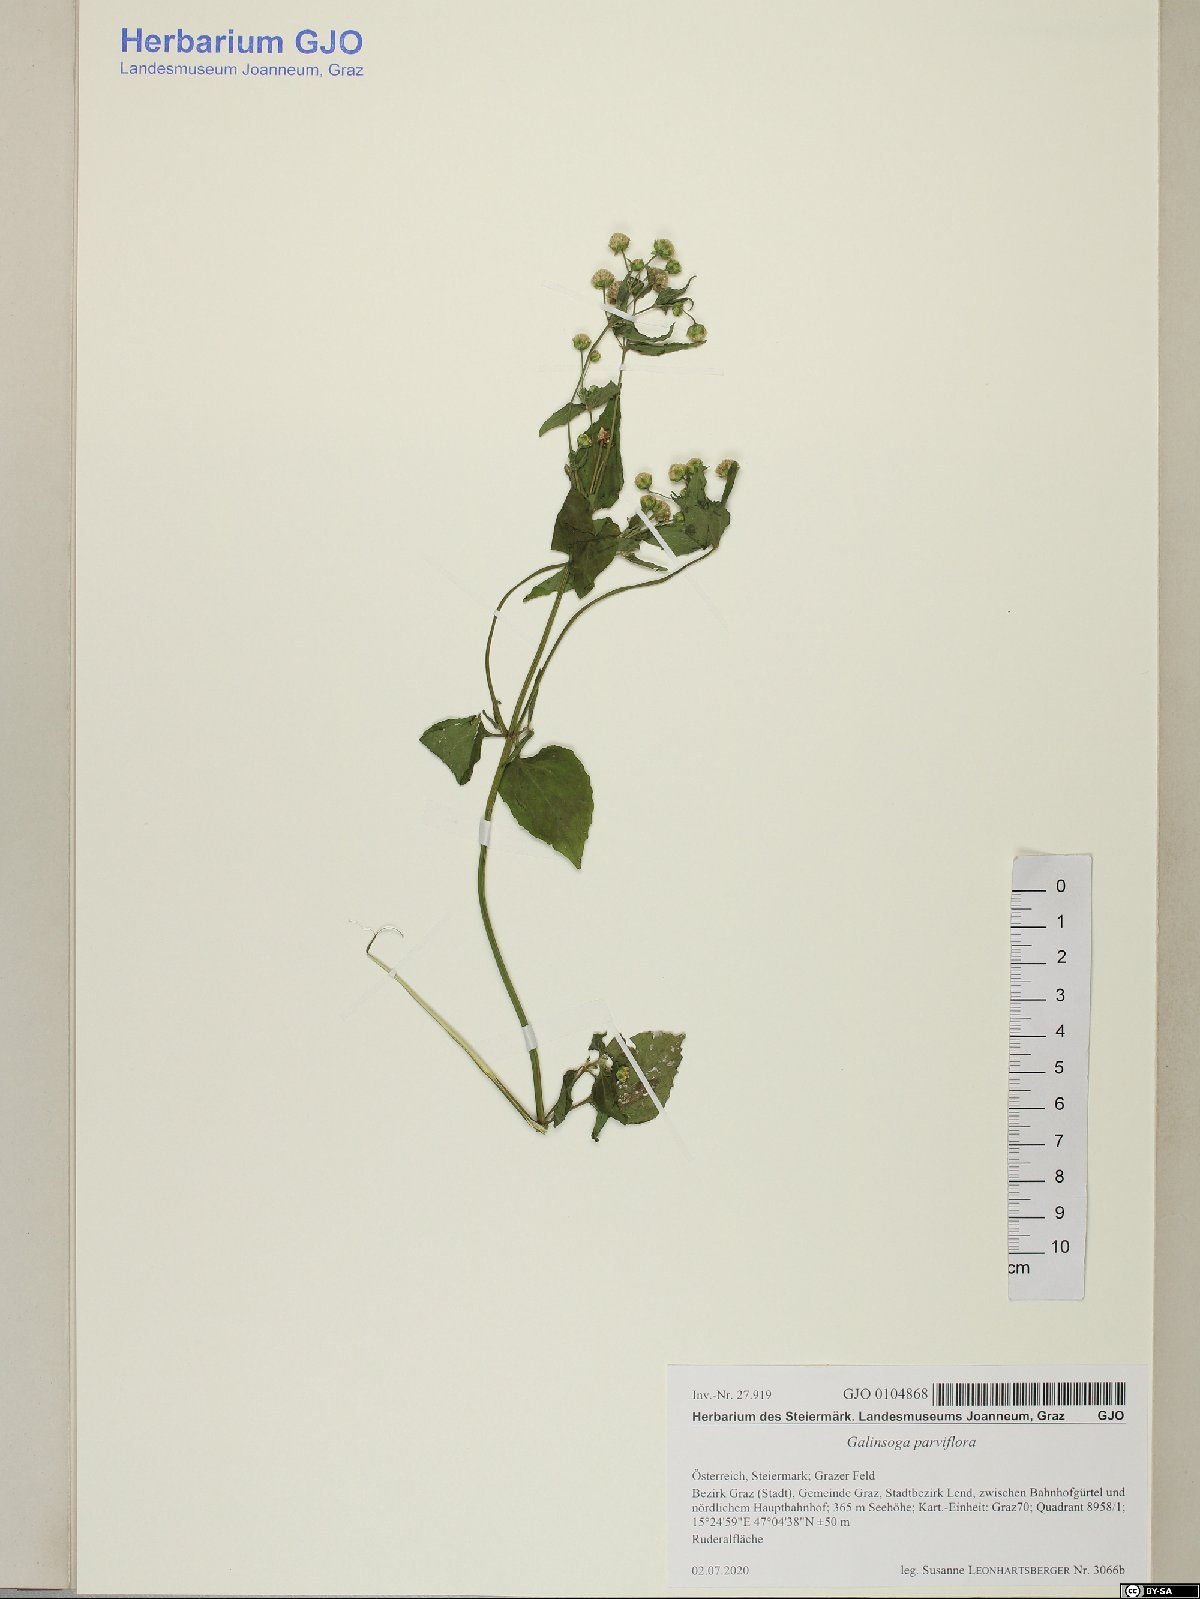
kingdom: Plantae
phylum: Tracheophyta
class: Magnoliopsida
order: Asterales
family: Asteraceae
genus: Galinsoga
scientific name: Galinsoga parviflora
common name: Gallant soldier
